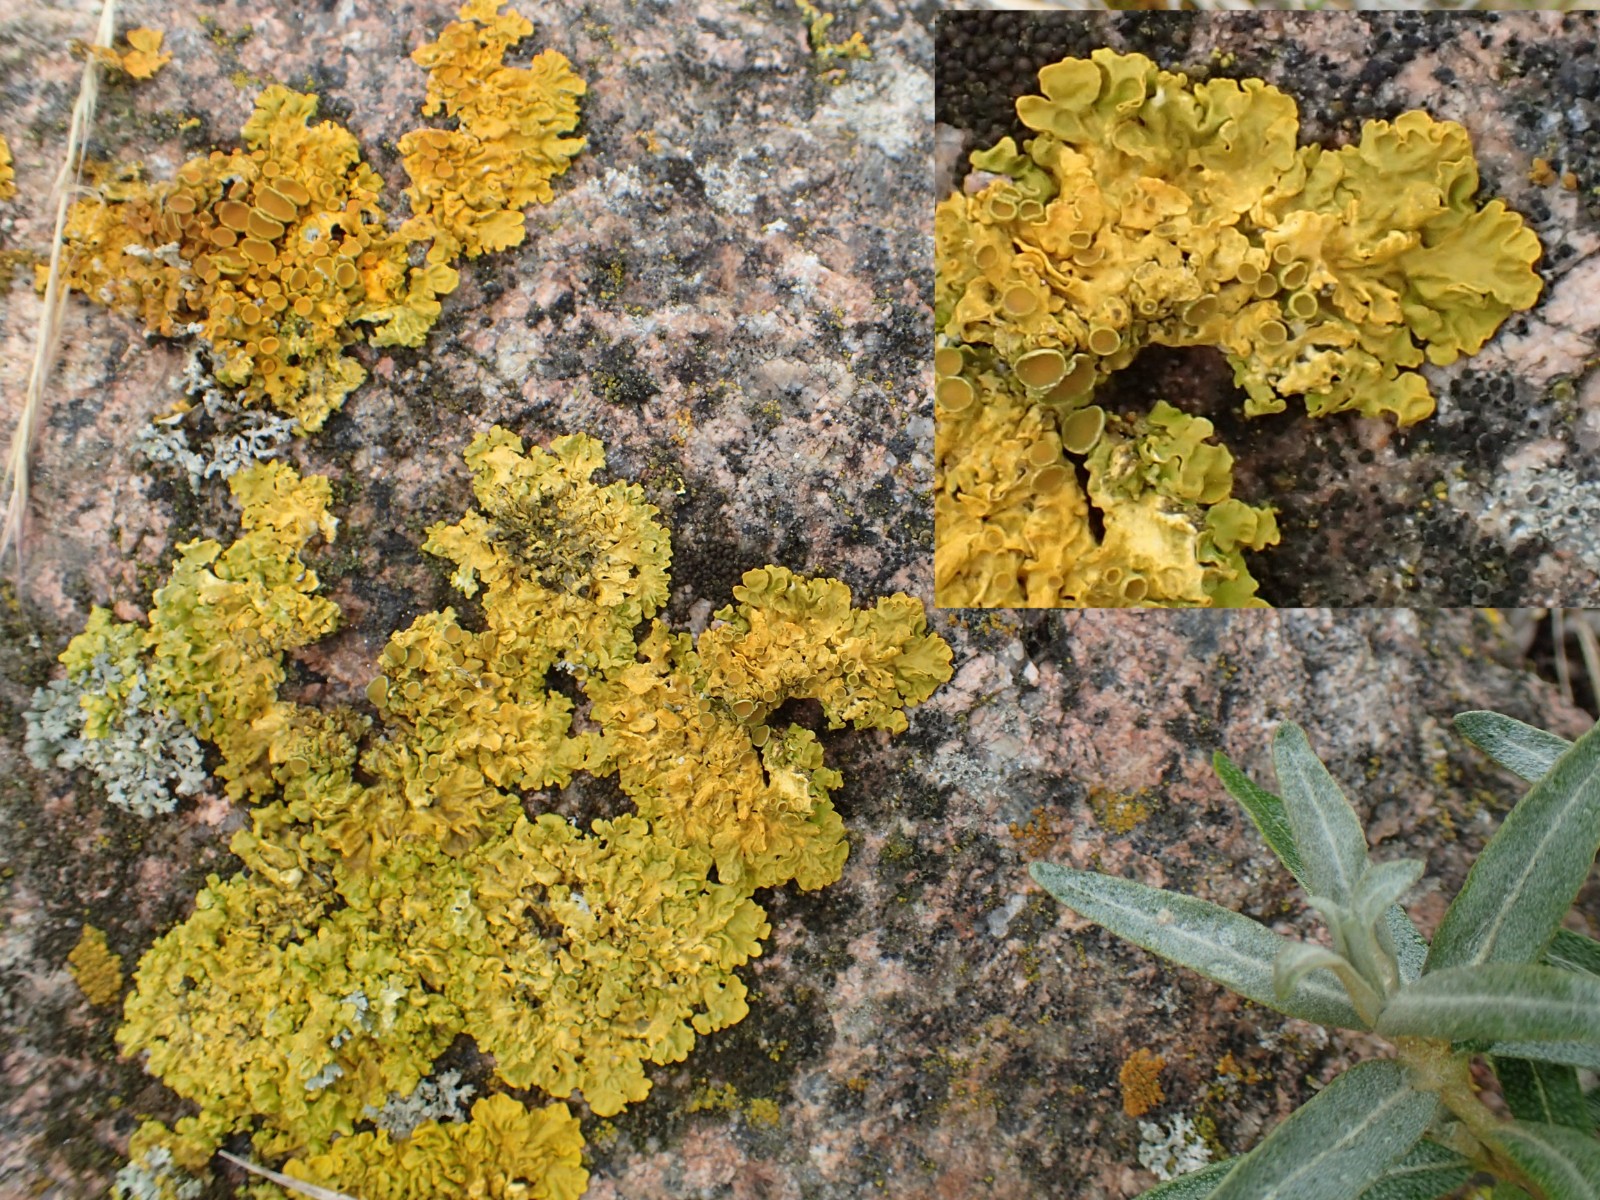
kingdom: Fungi
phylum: Ascomycota
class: Lecanoromycetes
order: Teloschistales
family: Teloschistaceae
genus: Xanthoria
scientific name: Xanthoria parietina
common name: almindelig væggelav
